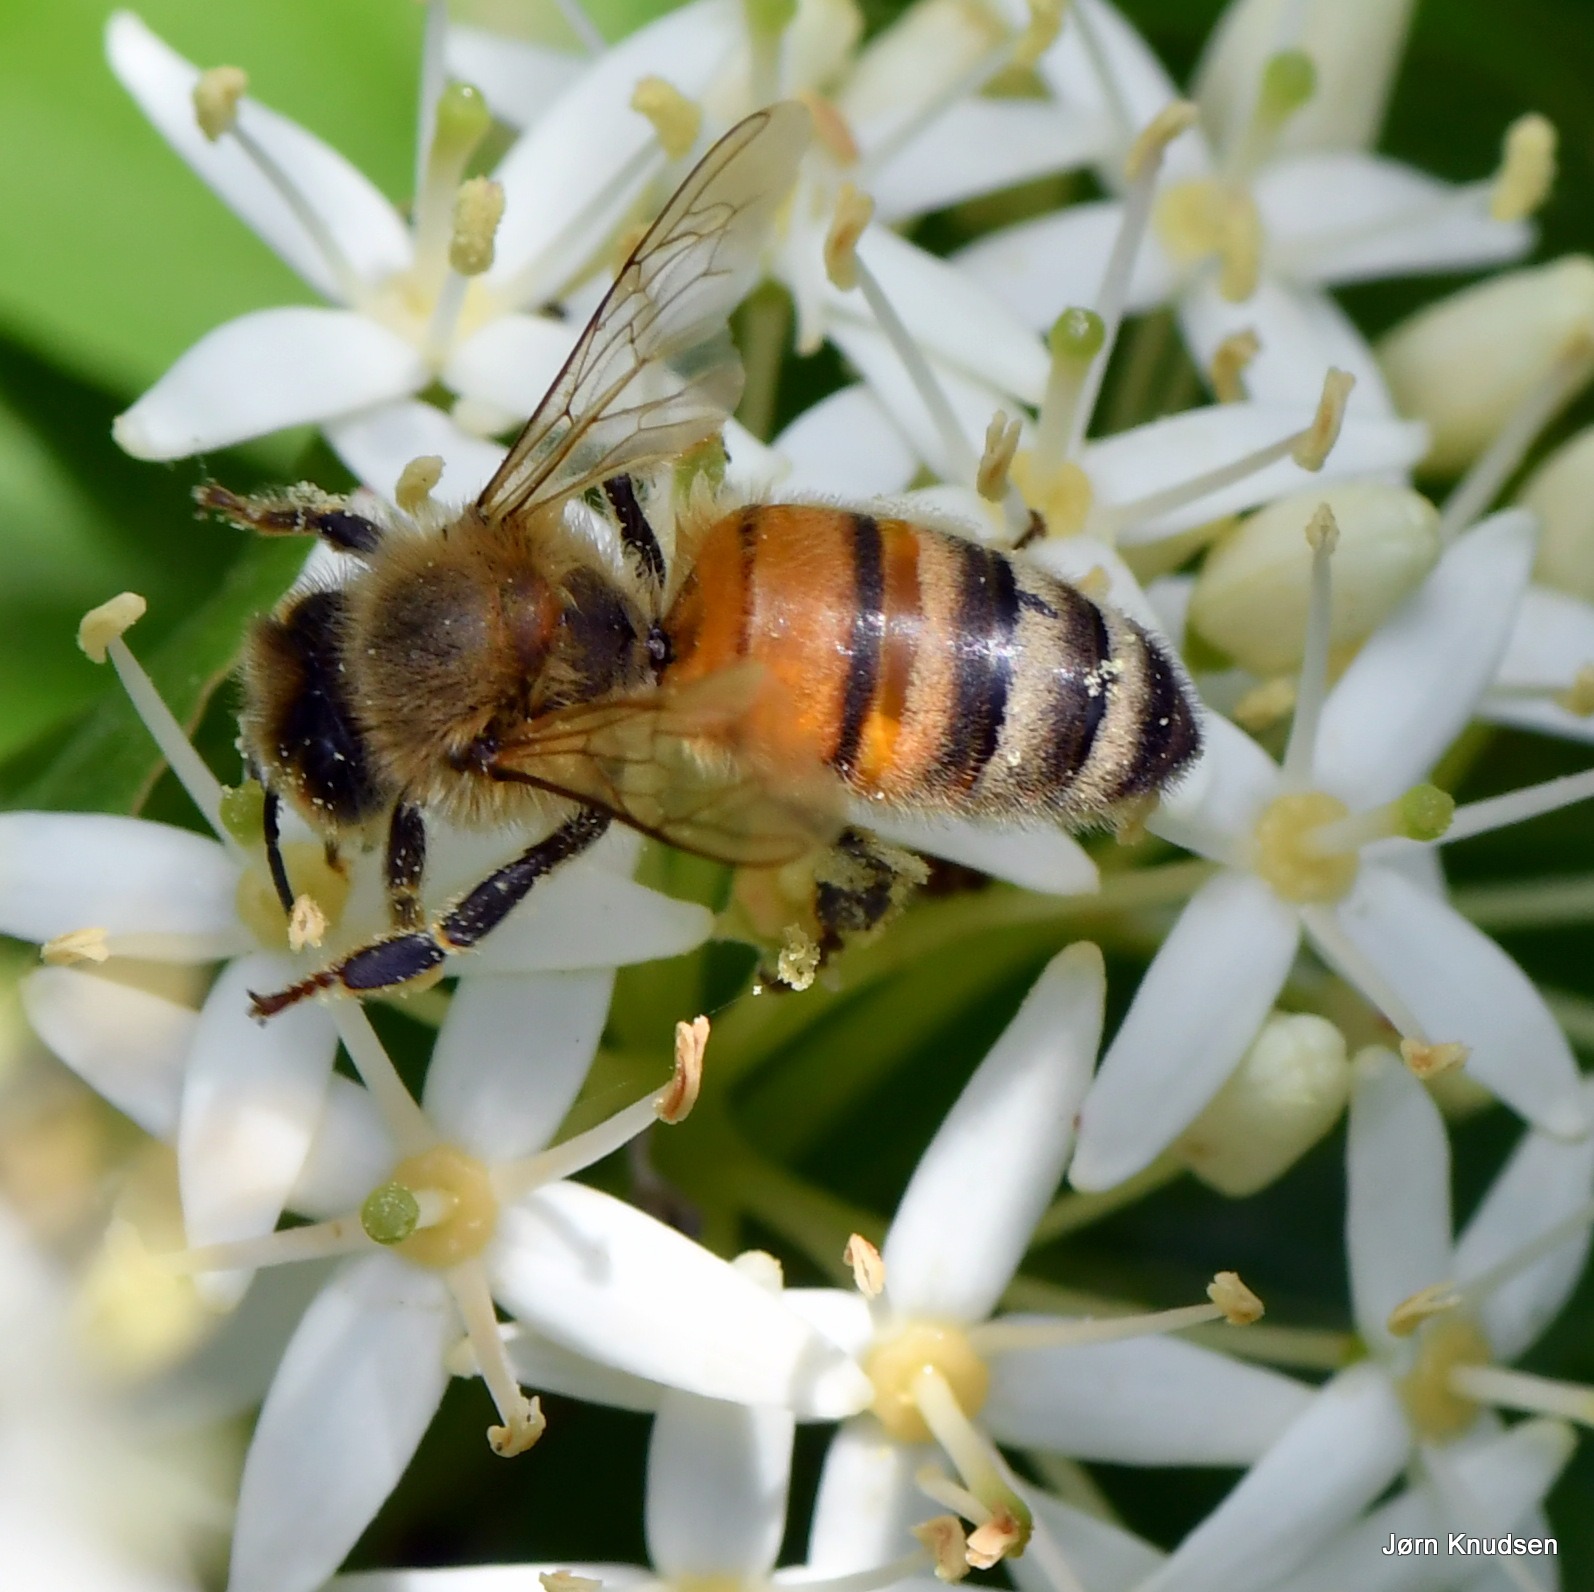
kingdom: Animalia
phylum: Arthropoda
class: Insecta
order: Hymenoptera
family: Apidae
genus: Apis
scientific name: Apis mellifera
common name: Honningbi
